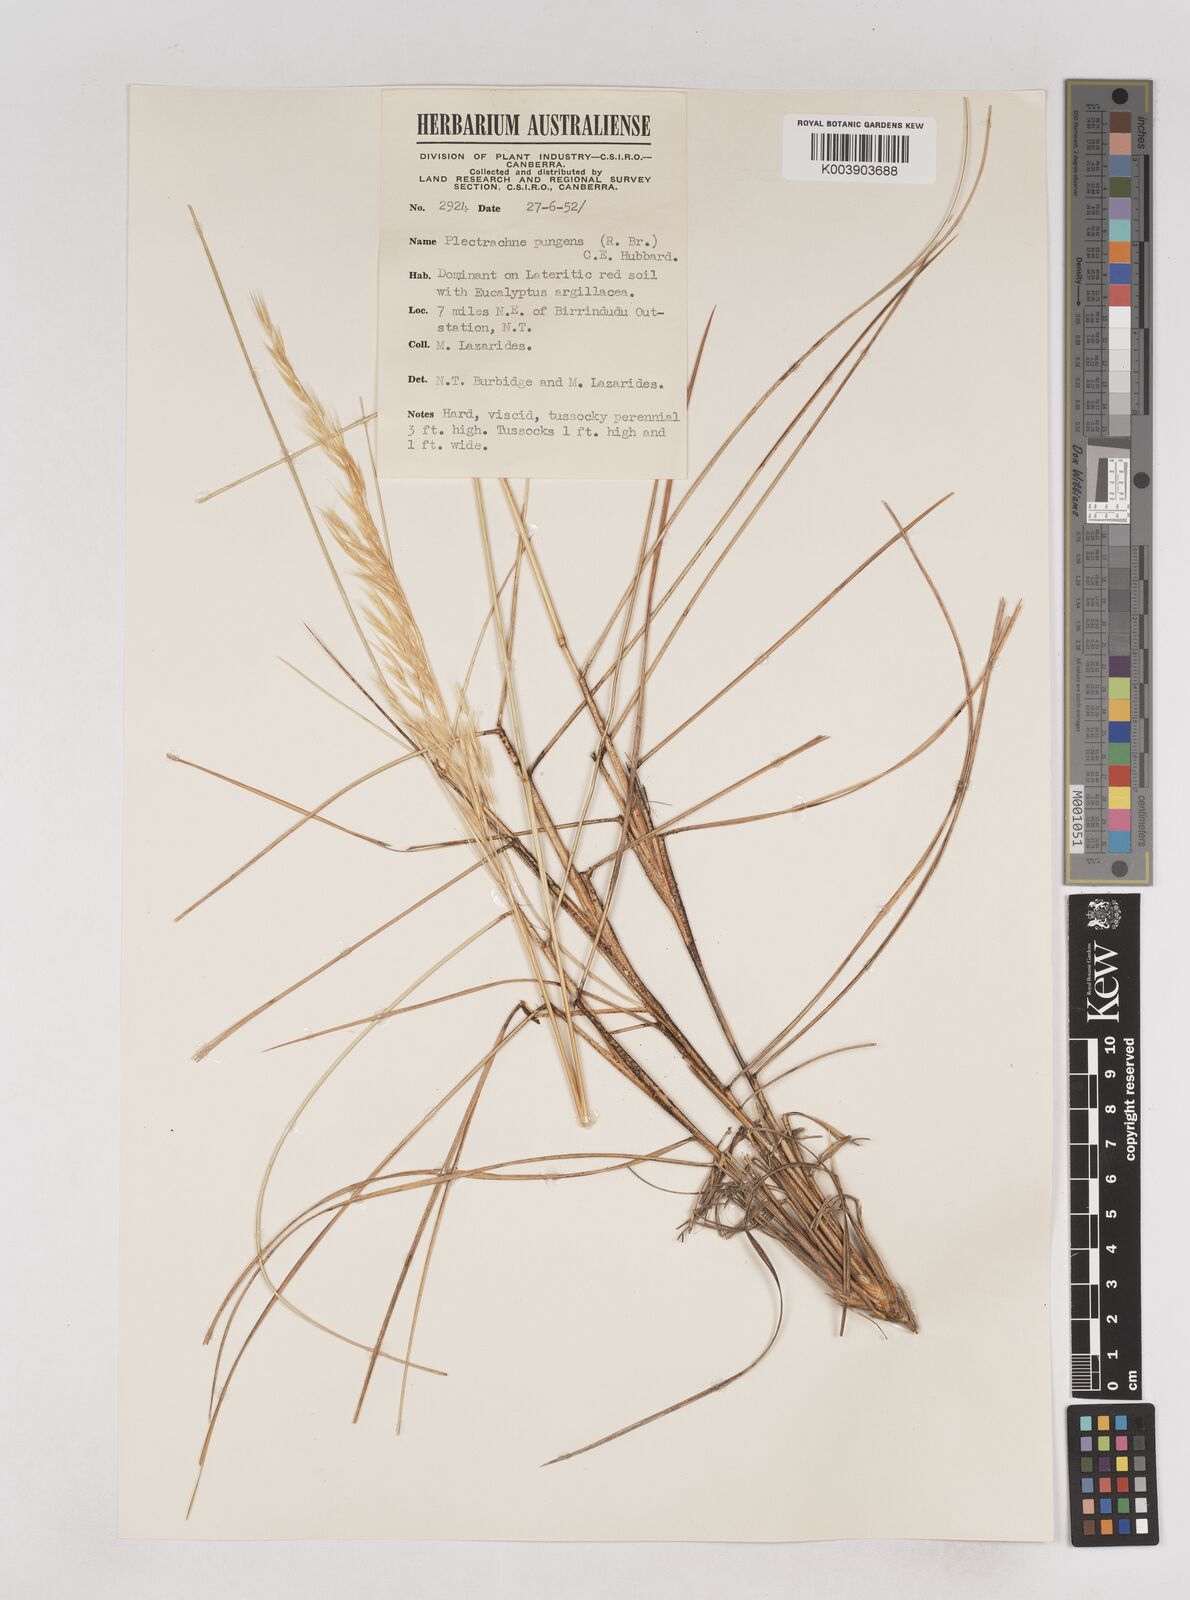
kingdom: Plantae
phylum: Tracheophyta
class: Liliopsida
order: Poales
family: Poaceae
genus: Triodia
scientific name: Triodia bitextura
